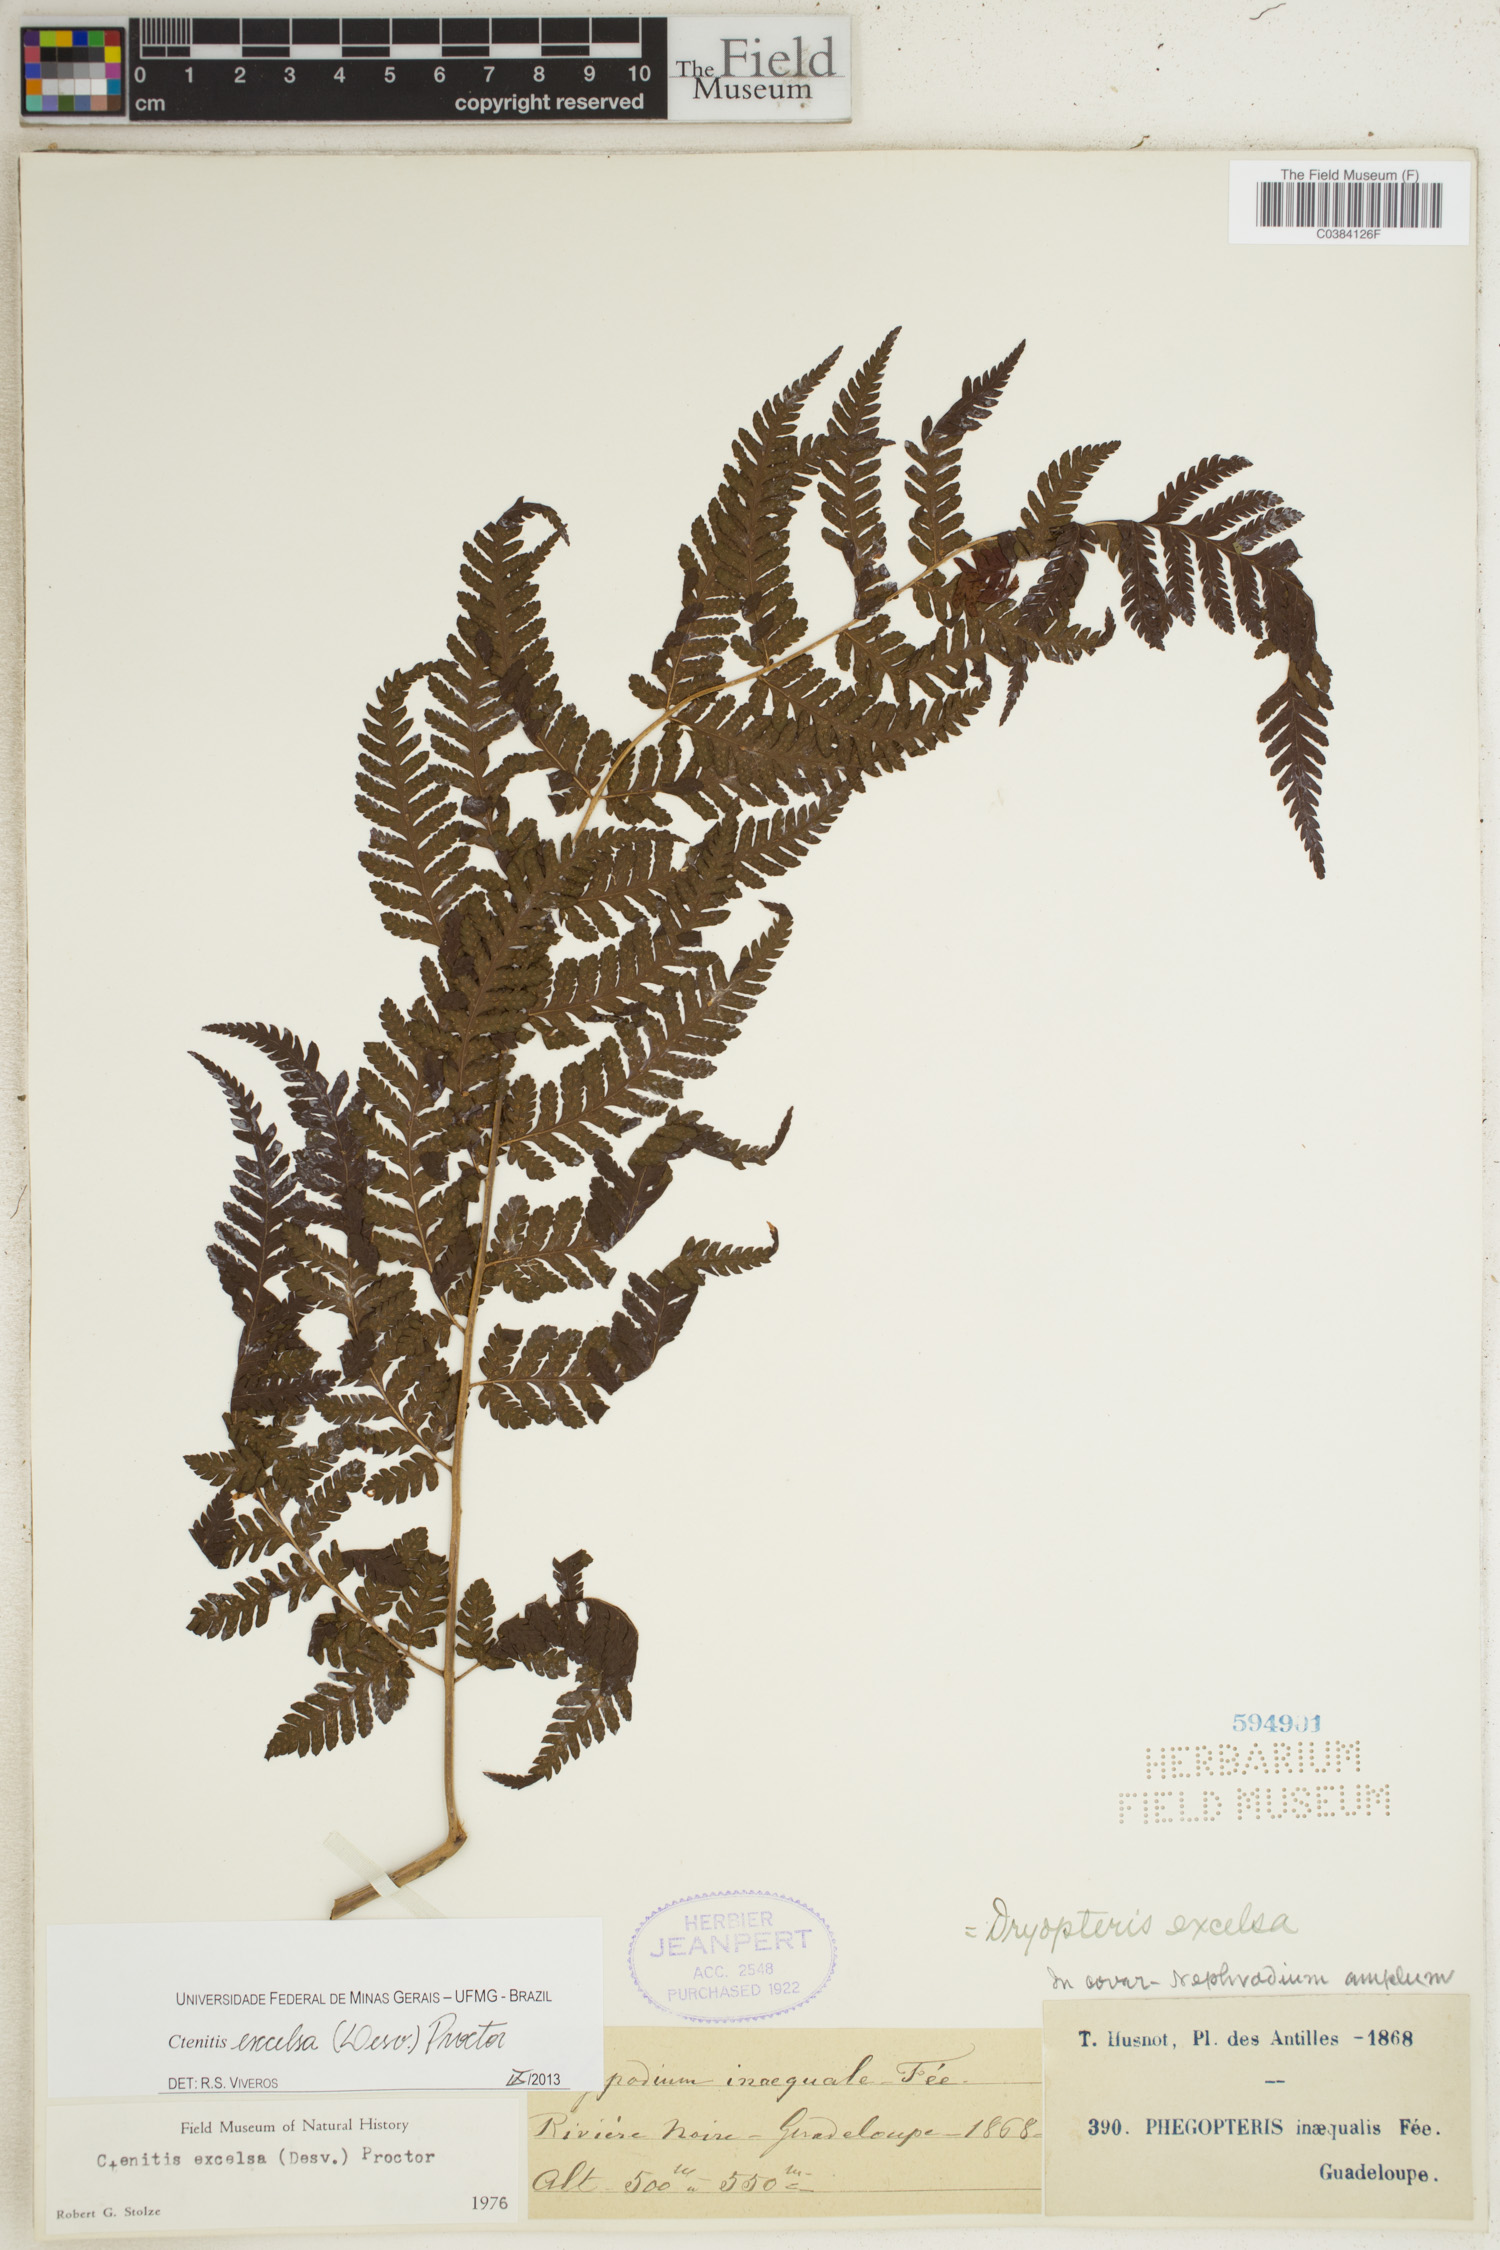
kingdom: Plantae
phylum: Tracheophyta
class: Polypodiopsida
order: Polypodiales
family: Dryopteridaceae
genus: Ctenitis
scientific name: Ctenitis excelsa
